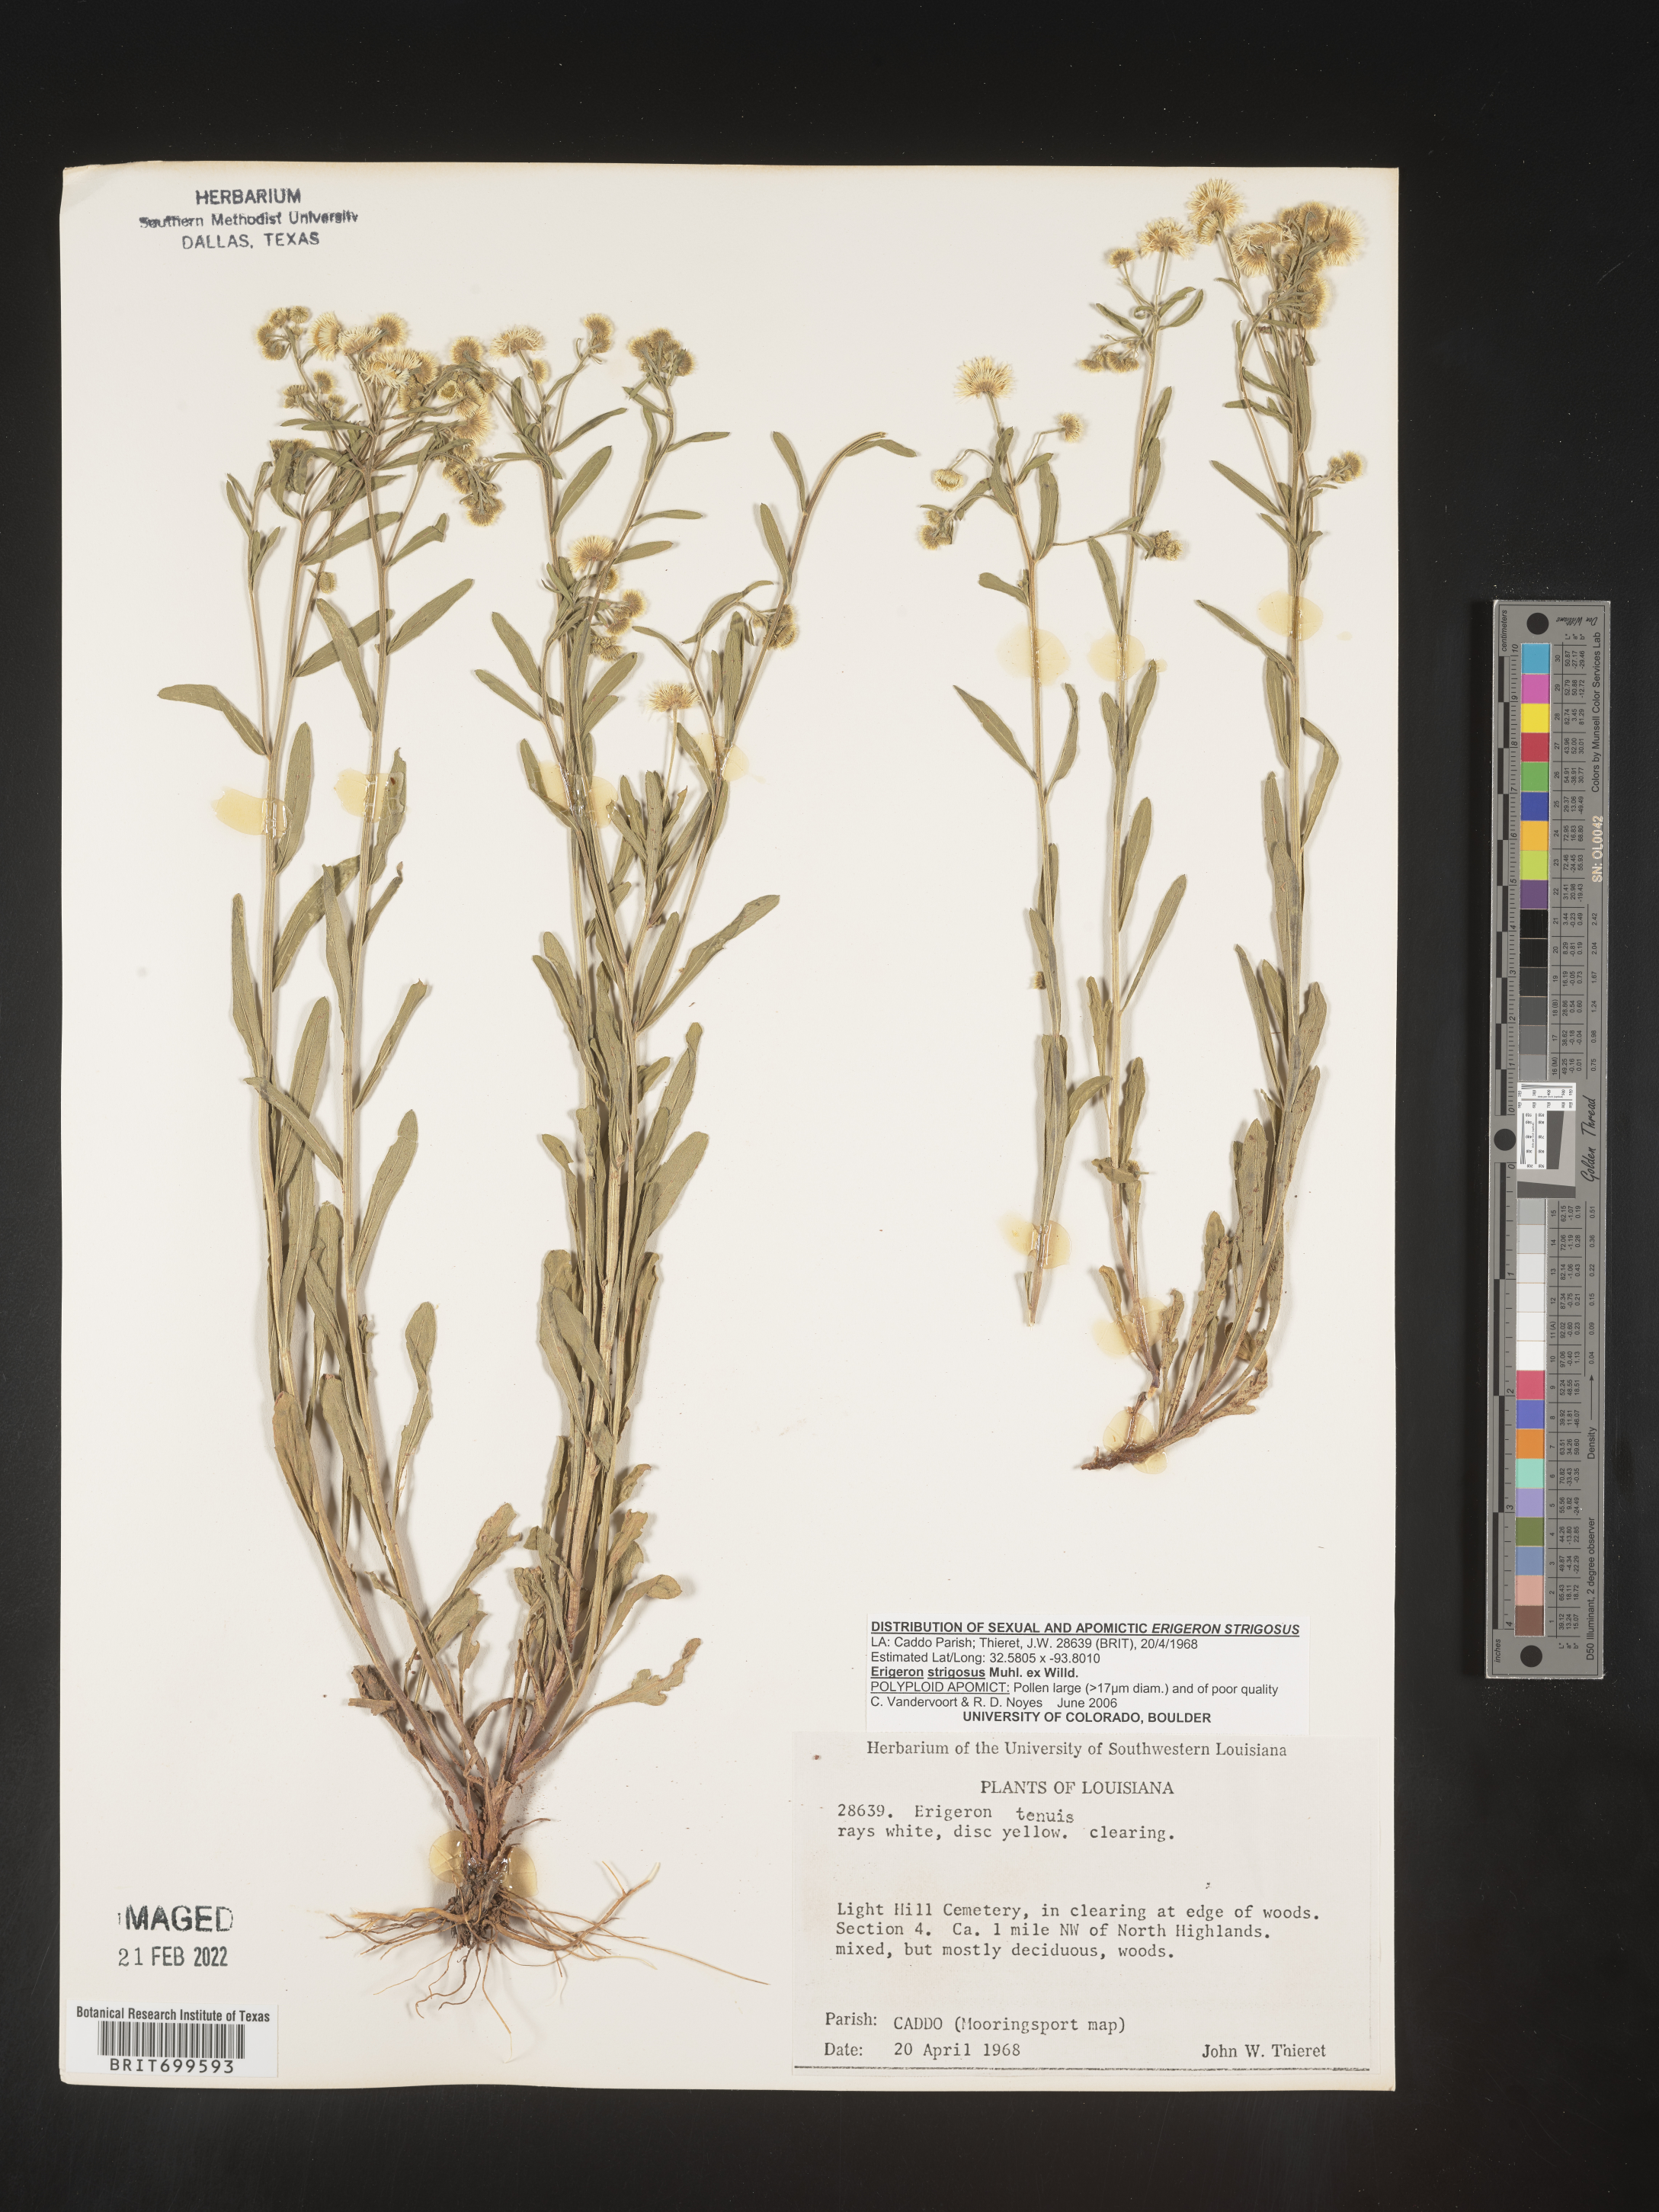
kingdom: Plantae
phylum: Tracheophyta
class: Magnoliopsida
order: Asterales
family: Asteraceae
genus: Erigeron
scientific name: Erigeron strigosus
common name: Common eastern fleabane
